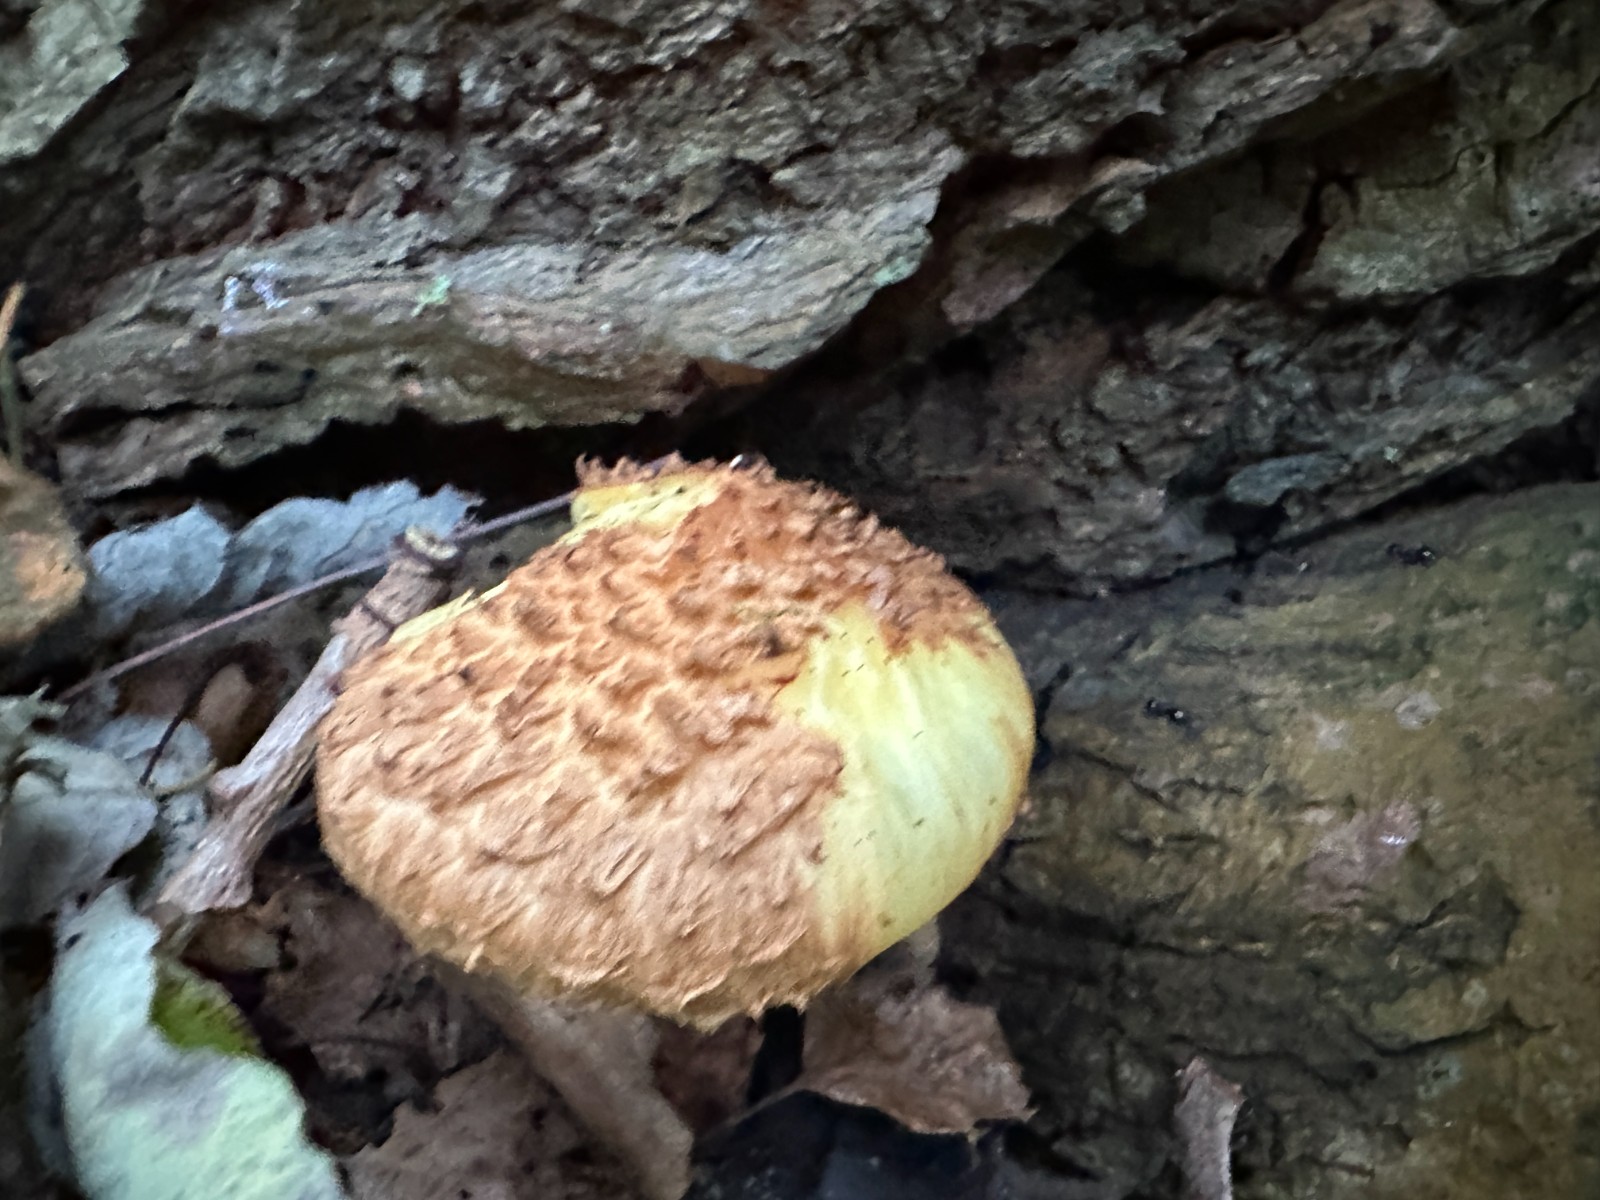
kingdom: Fungi
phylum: Basidiomycota
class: Agaricomycetes
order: Agaricales
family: Strophariaceae
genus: Pholiota
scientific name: Pholiota squarrosa
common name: krumskællet skælhat
